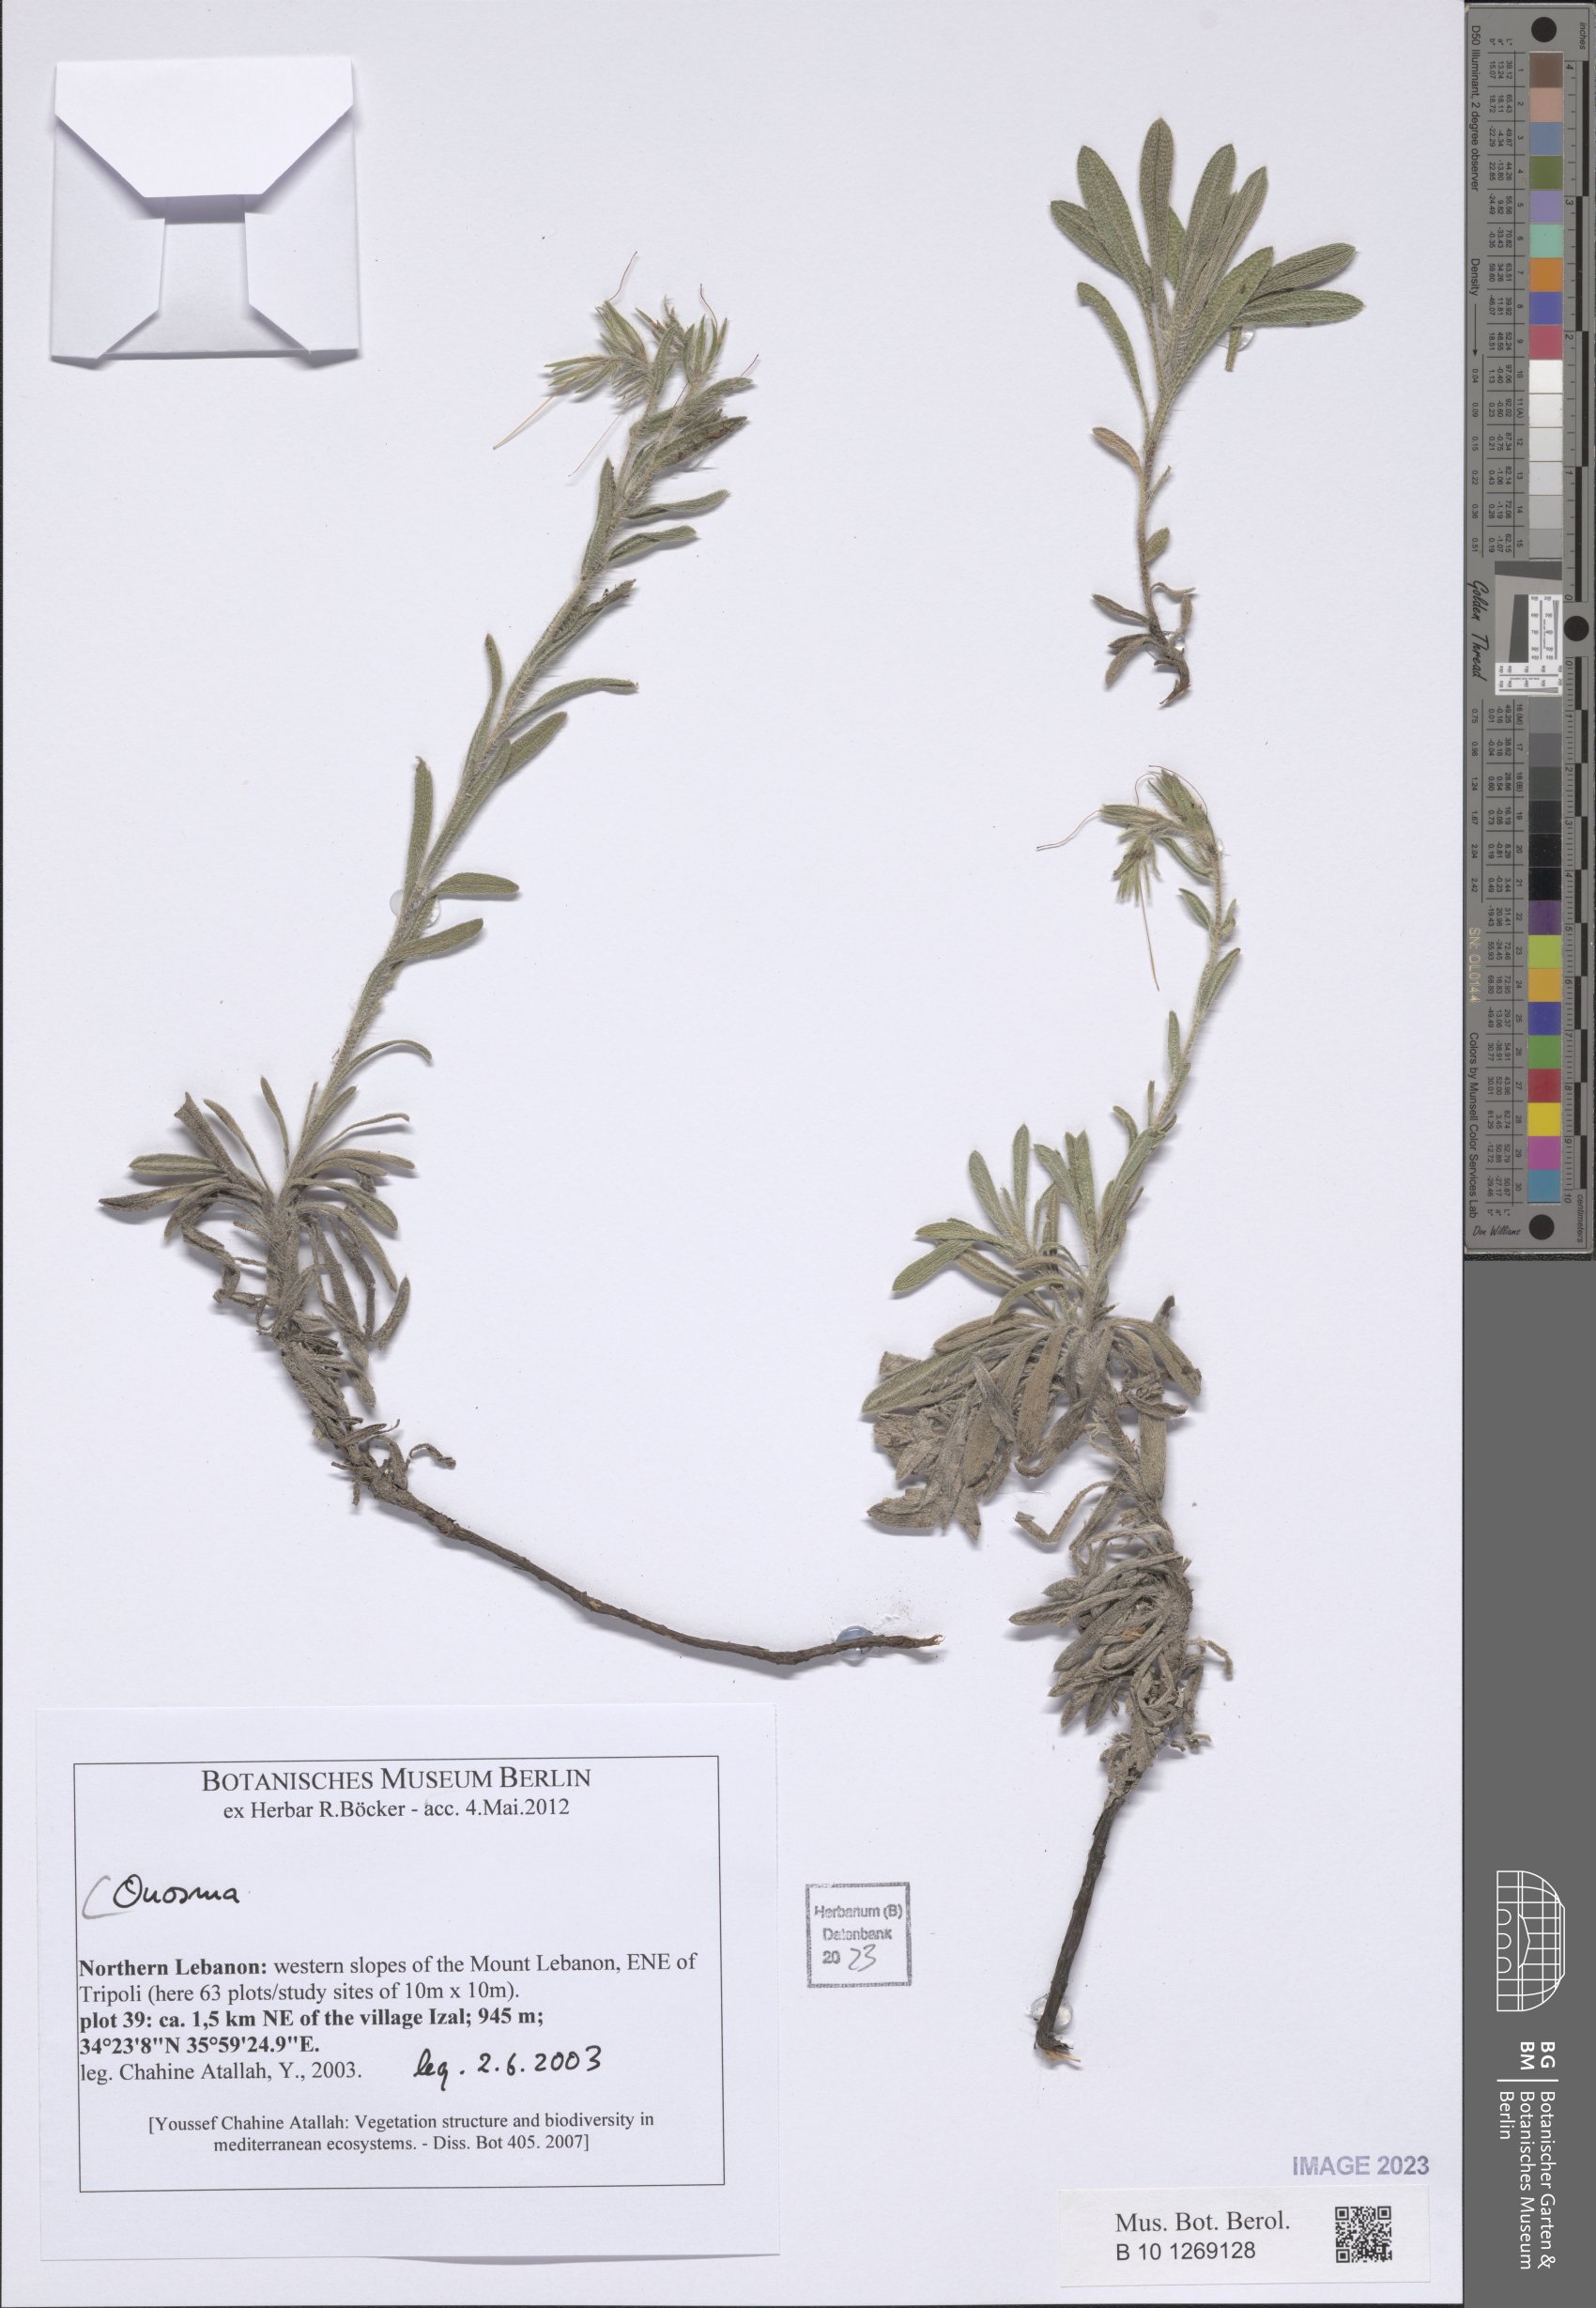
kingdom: Plantae
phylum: Tracheophyta
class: Magnoliopsida
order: Boraginales
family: Boraginaceae
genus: Onosma
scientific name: Onosma
